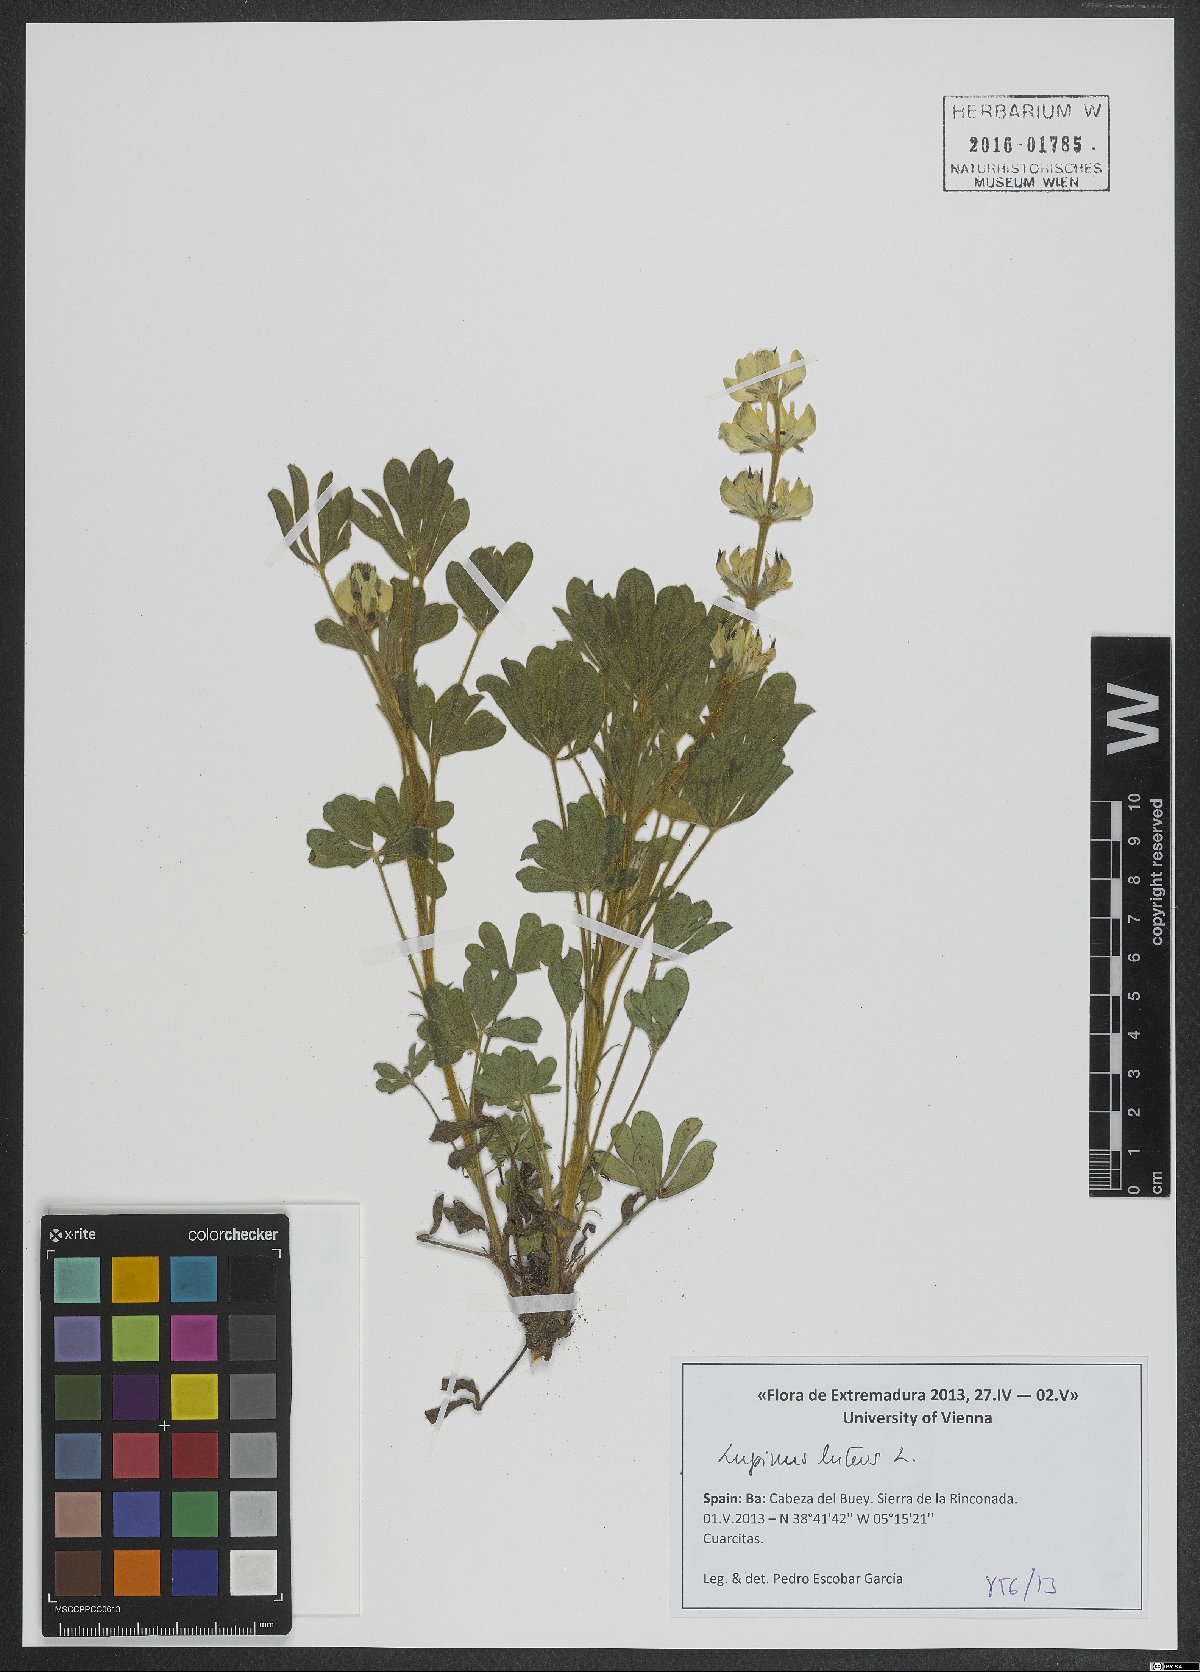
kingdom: Plantae
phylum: Tracheophyta
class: Magnoliopsida
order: Fabales
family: Fabaceae
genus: Lupinus
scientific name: Lupinus luteus
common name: European yellow lupine
